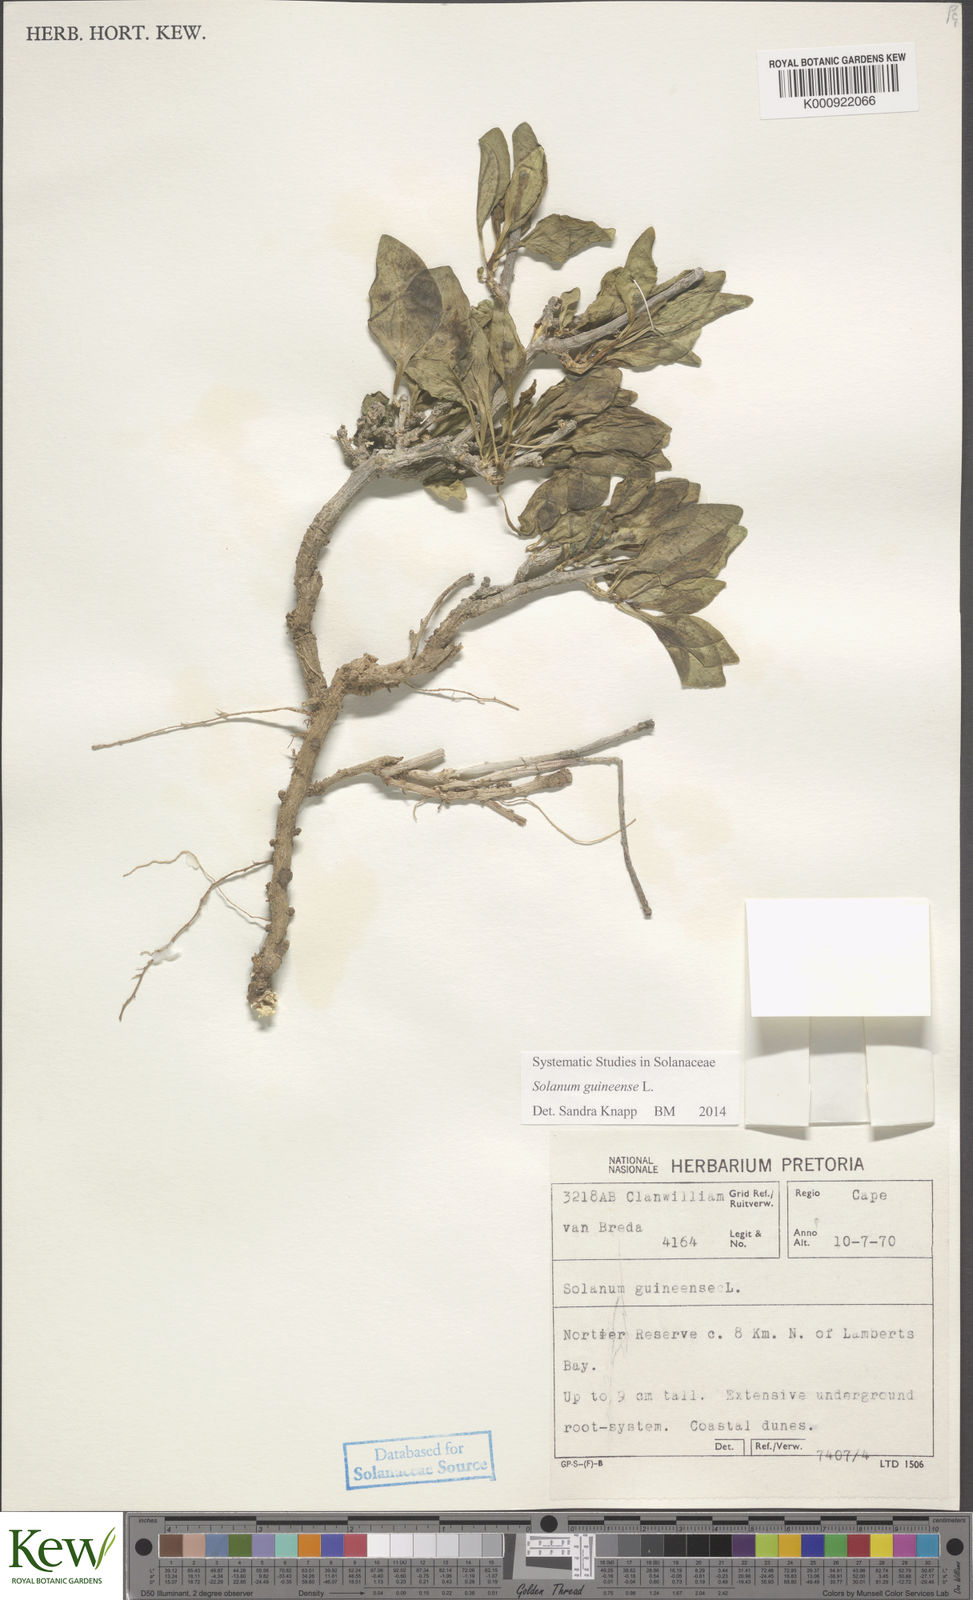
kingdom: Plantae
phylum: Tracheophyta
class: Magnoliopsida
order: Solanales
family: Solanaceae
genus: Solanum
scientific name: Solanum guineense
